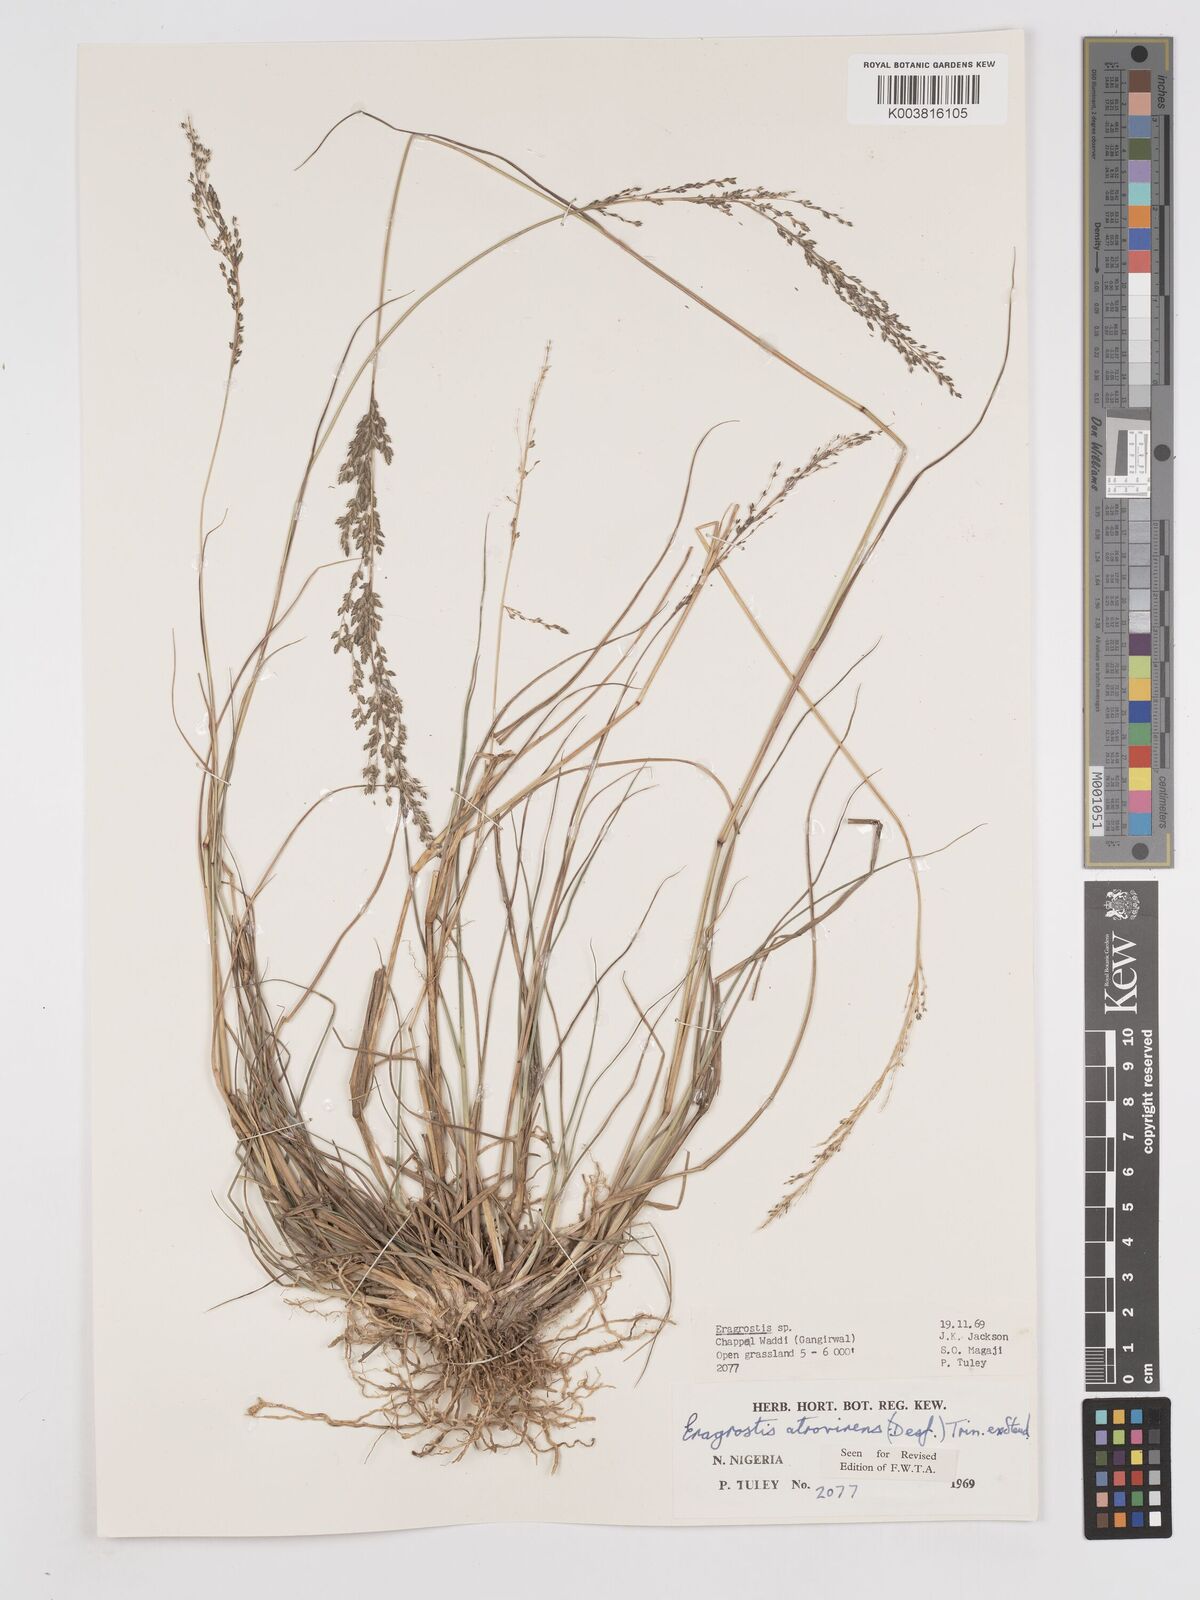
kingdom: Plantae
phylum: Tracheophyta
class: Liliopsida
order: Poales
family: Poaceae
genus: Eragrostis
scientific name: Eragrostis atrovirens
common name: Thalia lovegrass
